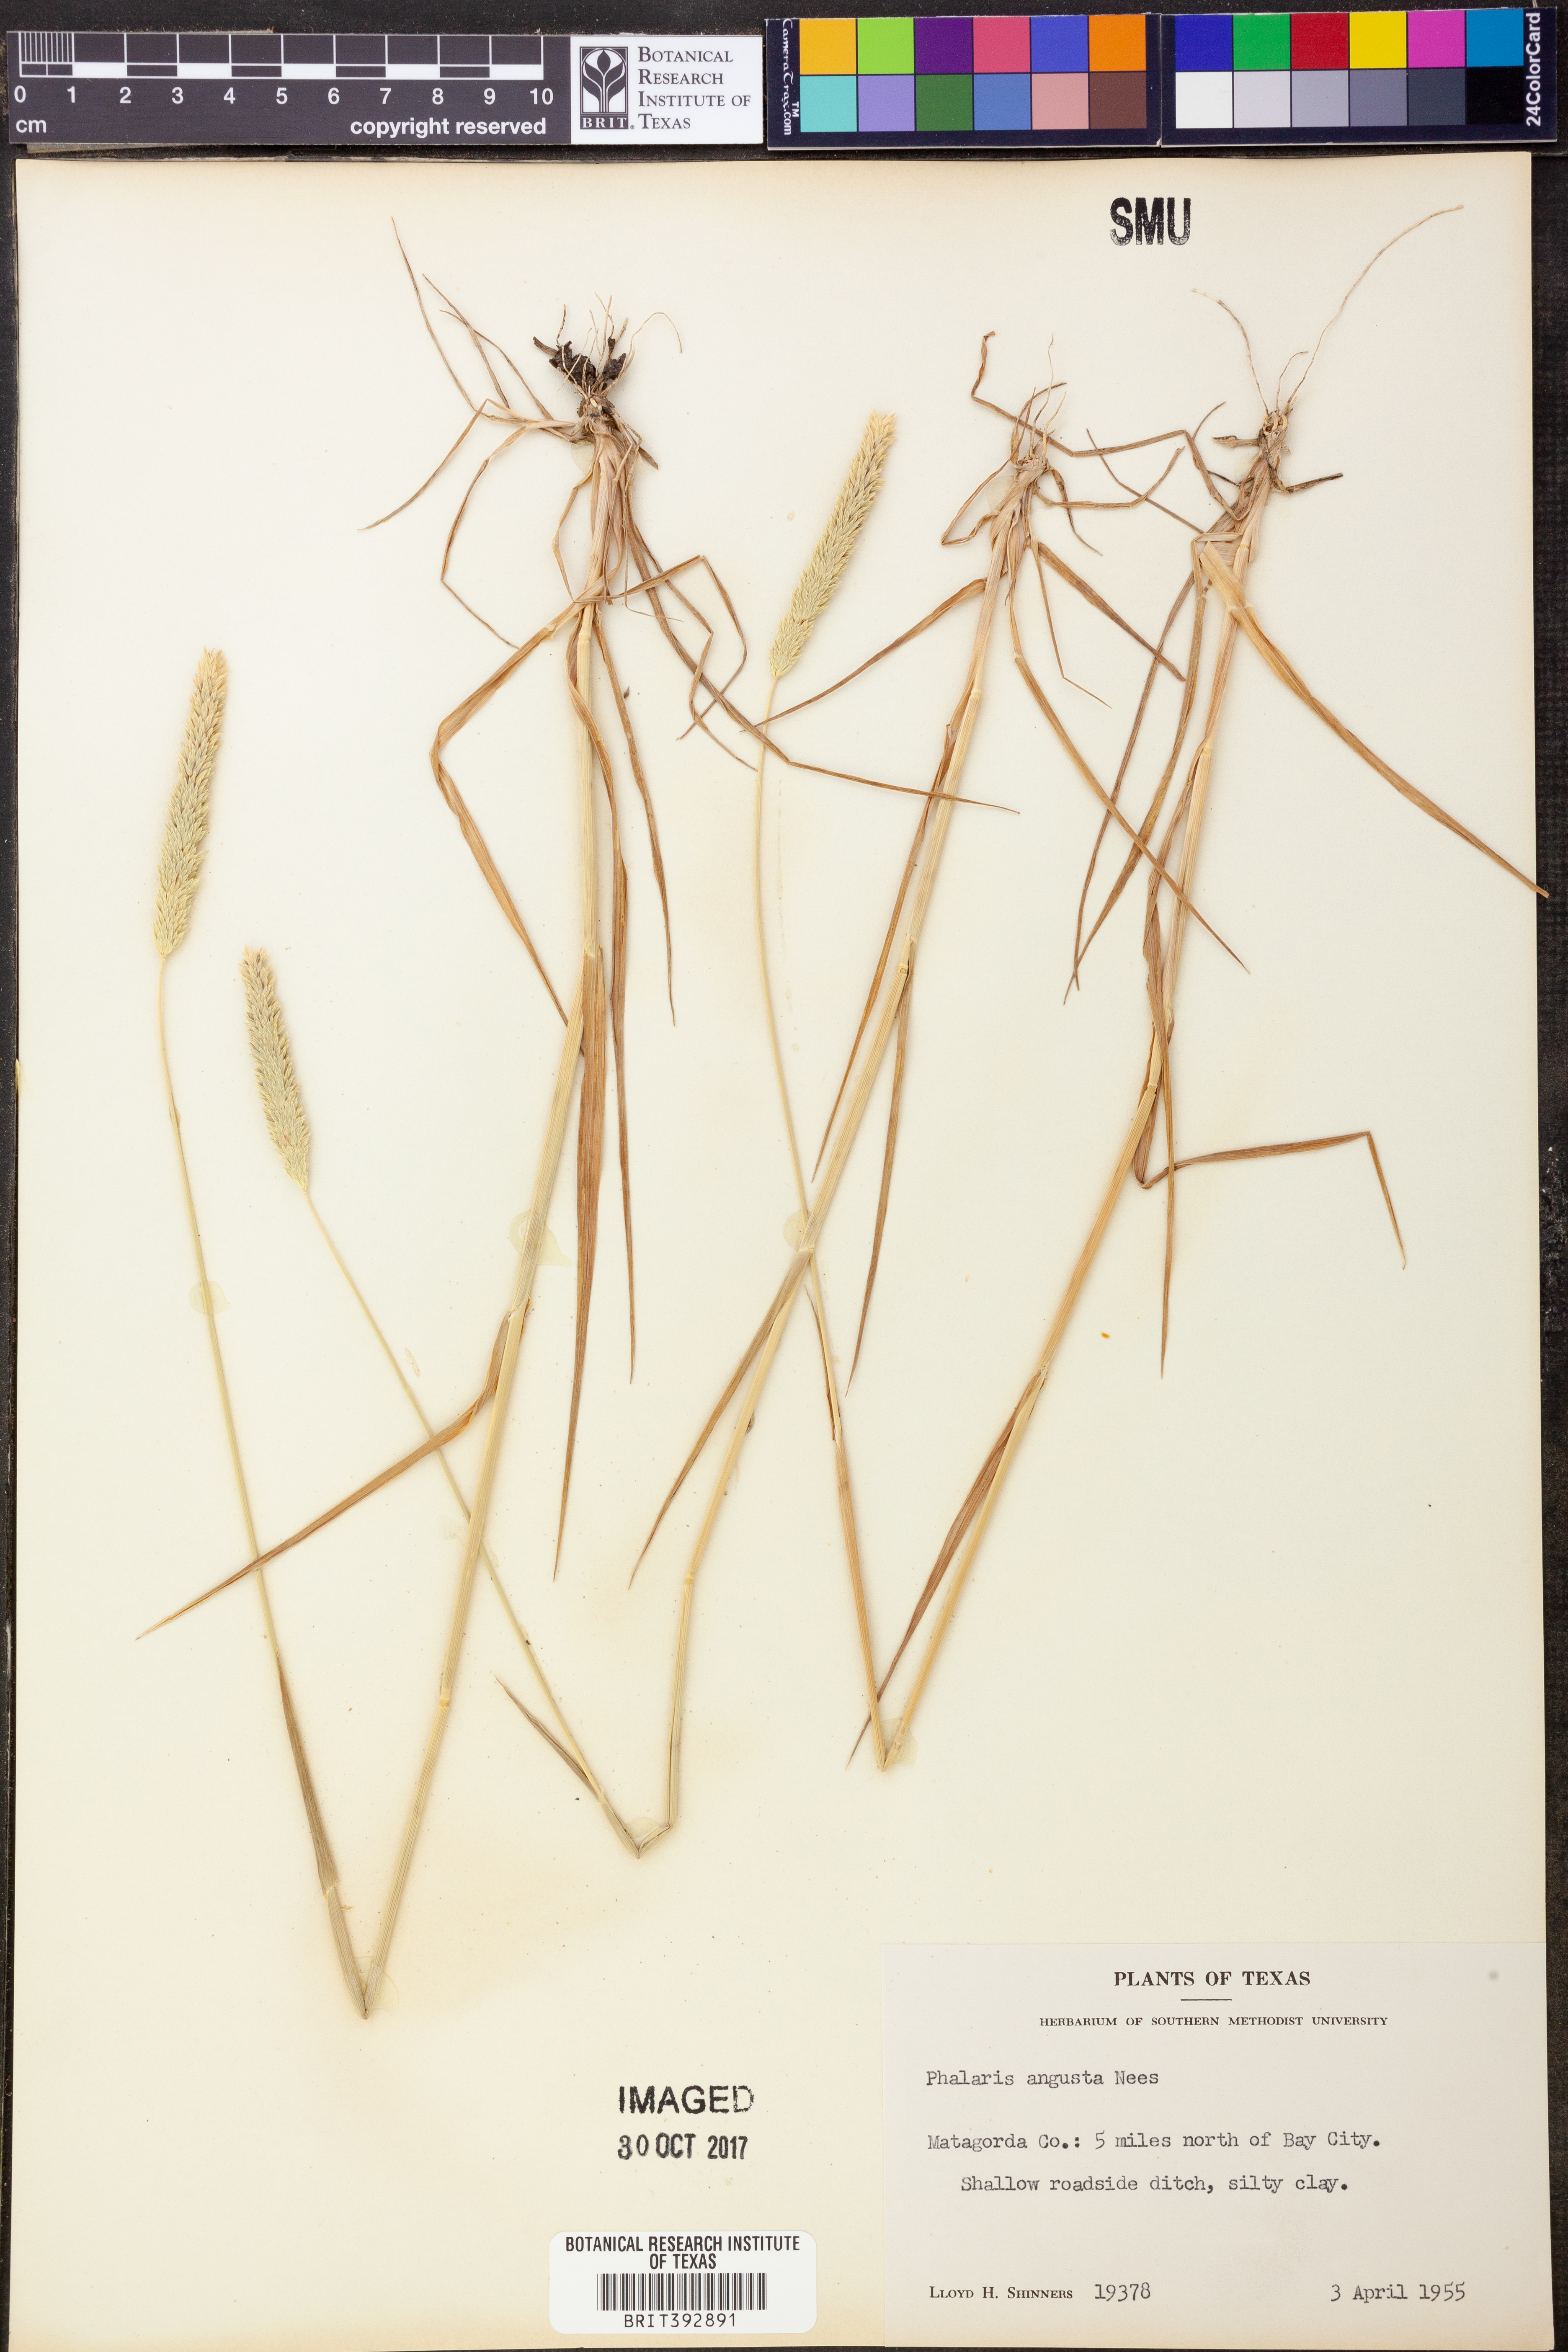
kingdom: Plantae
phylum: Tracheophyta
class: Liliopsida
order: Poales
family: Poaceae
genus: Phalaris
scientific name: Phalaris angusta
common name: Narrow canary grass
